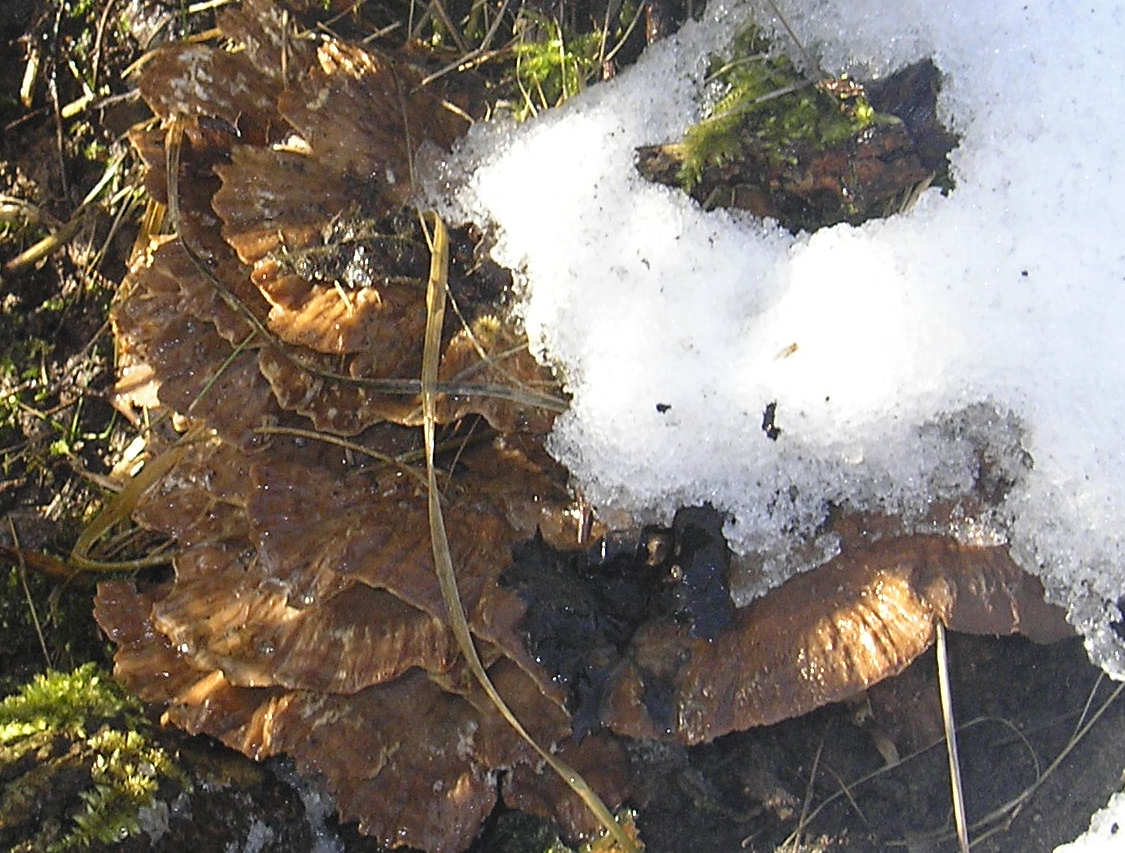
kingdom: Fungi
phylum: Basidiomycota
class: Agaricomycetes
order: Polyporales
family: Phanerochaetaceae
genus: Bjerkandera
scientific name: Bjerkandera fumosa
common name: grågul sodporesvamp
